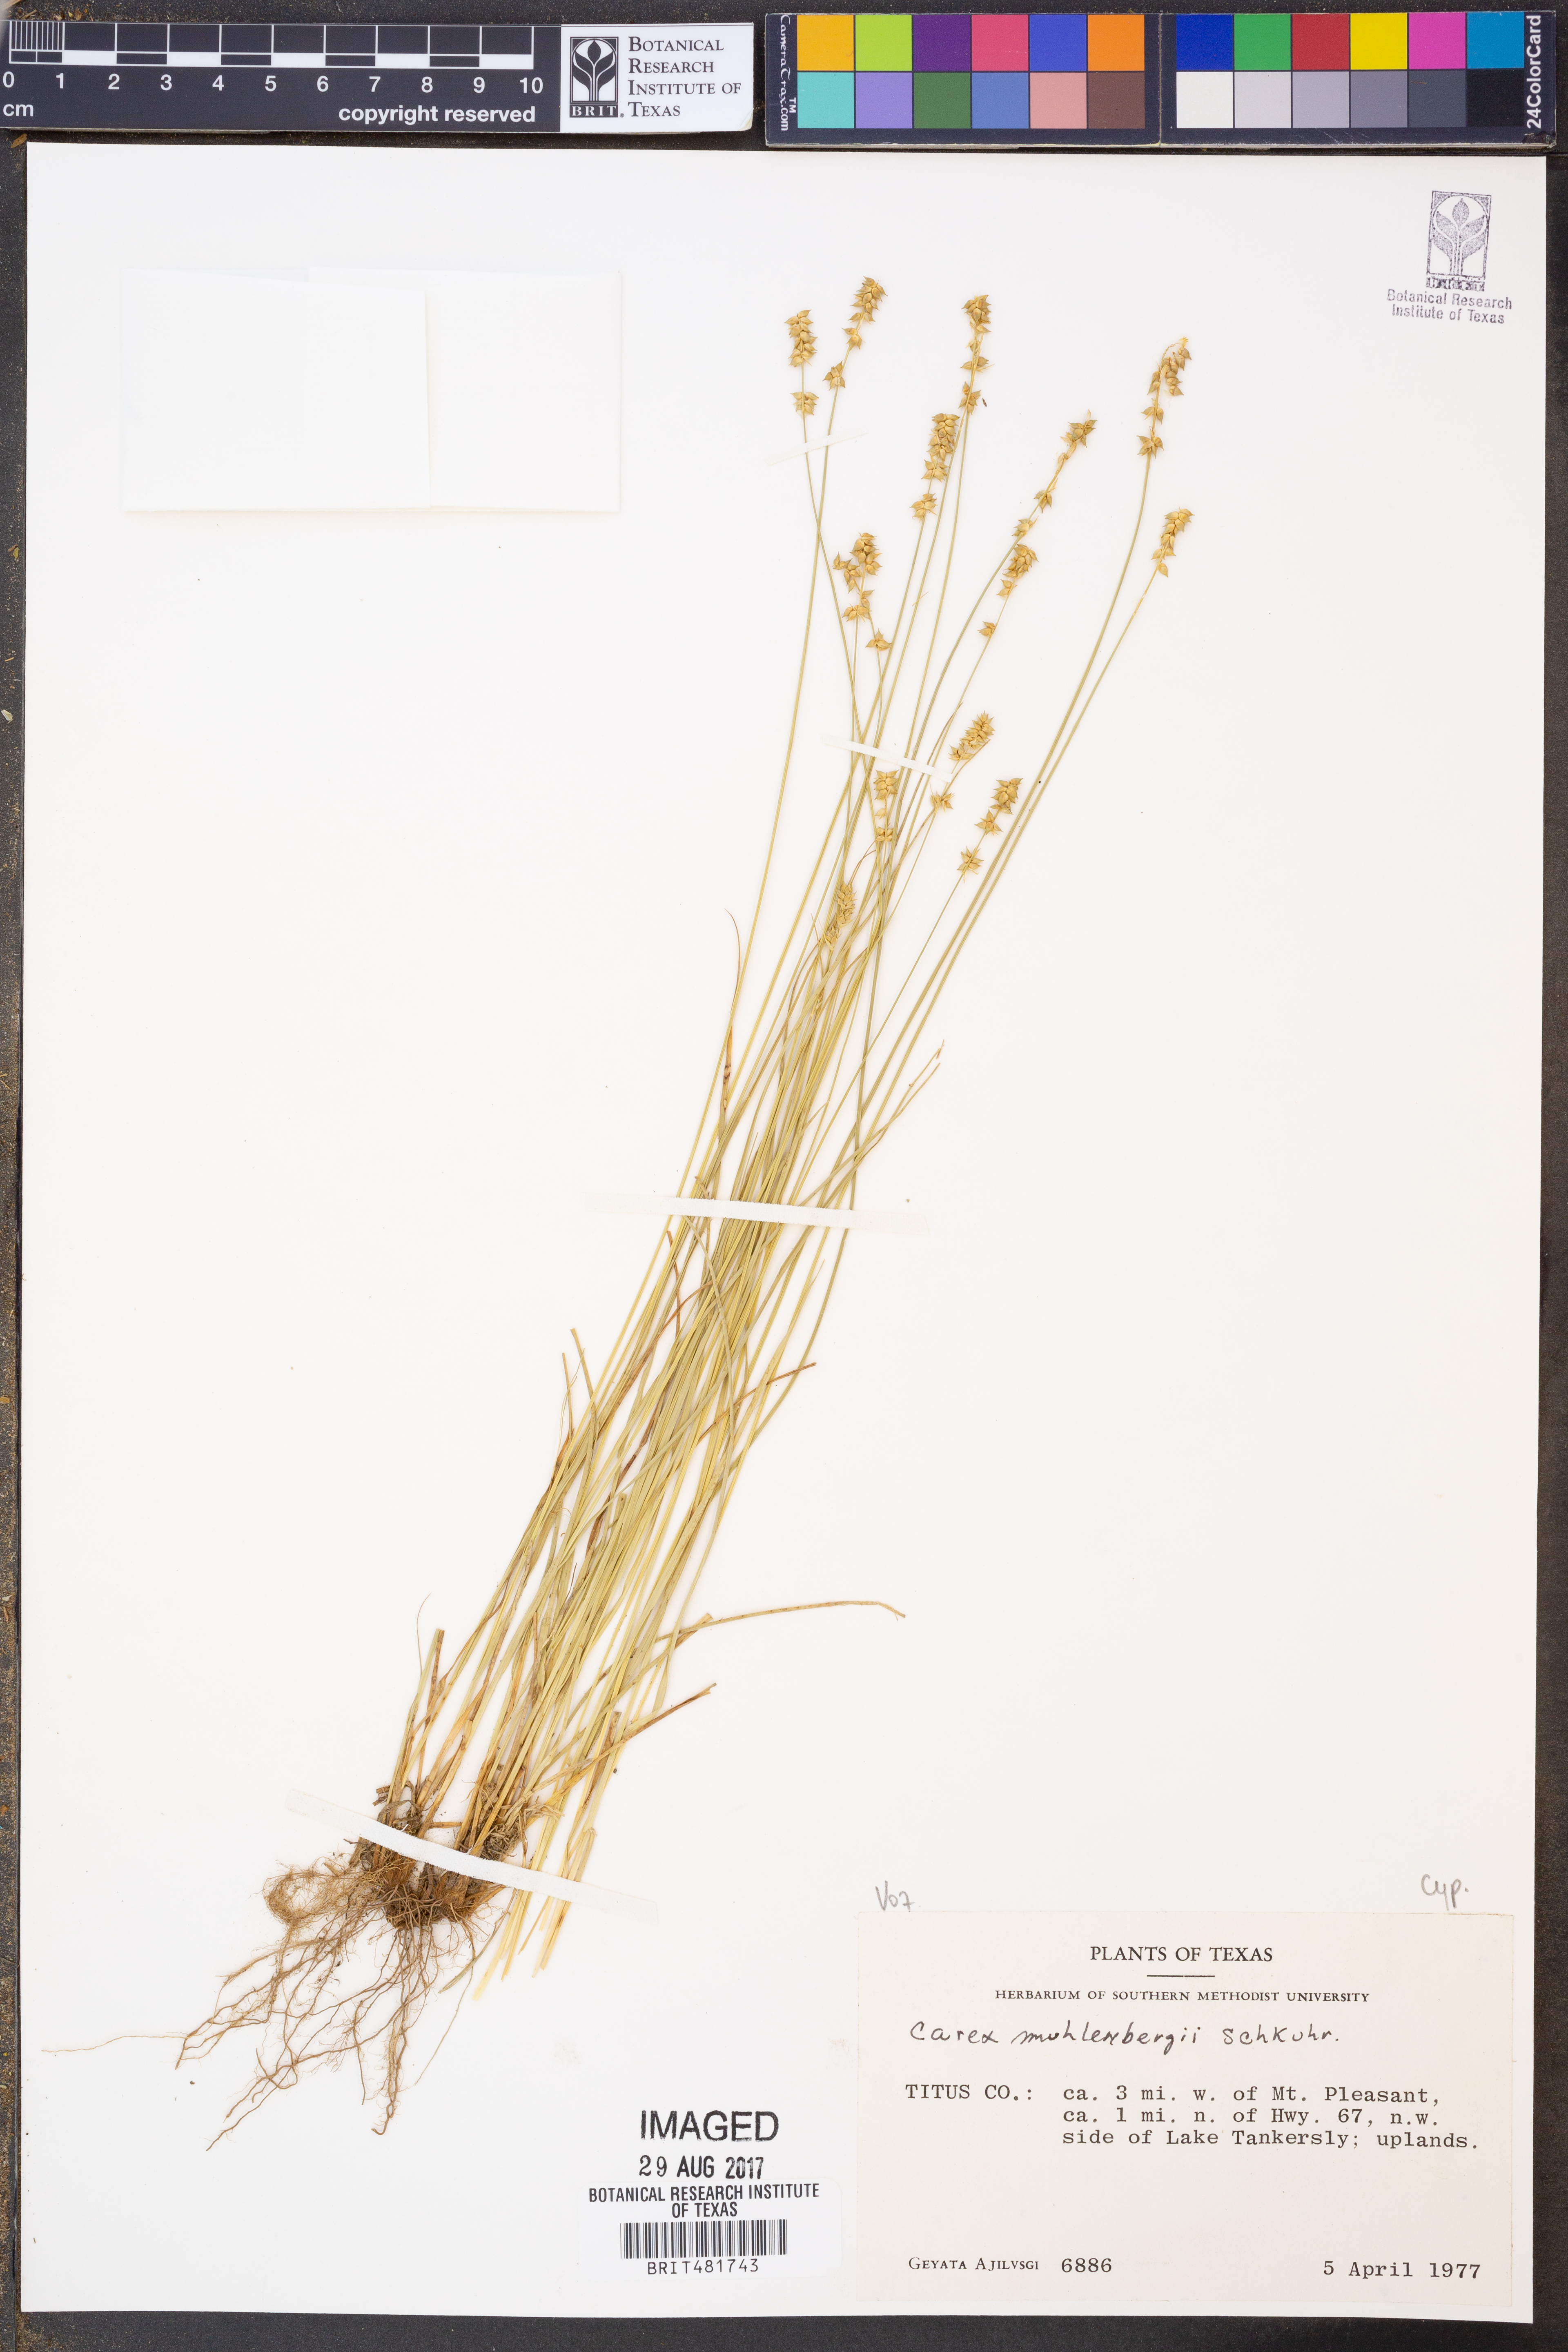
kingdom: Plantae
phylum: Tracheophyta
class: Liliopsida
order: Poales
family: Cyperaceae
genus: Carex
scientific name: Carex vulpinoidea
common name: American fox-sedge
